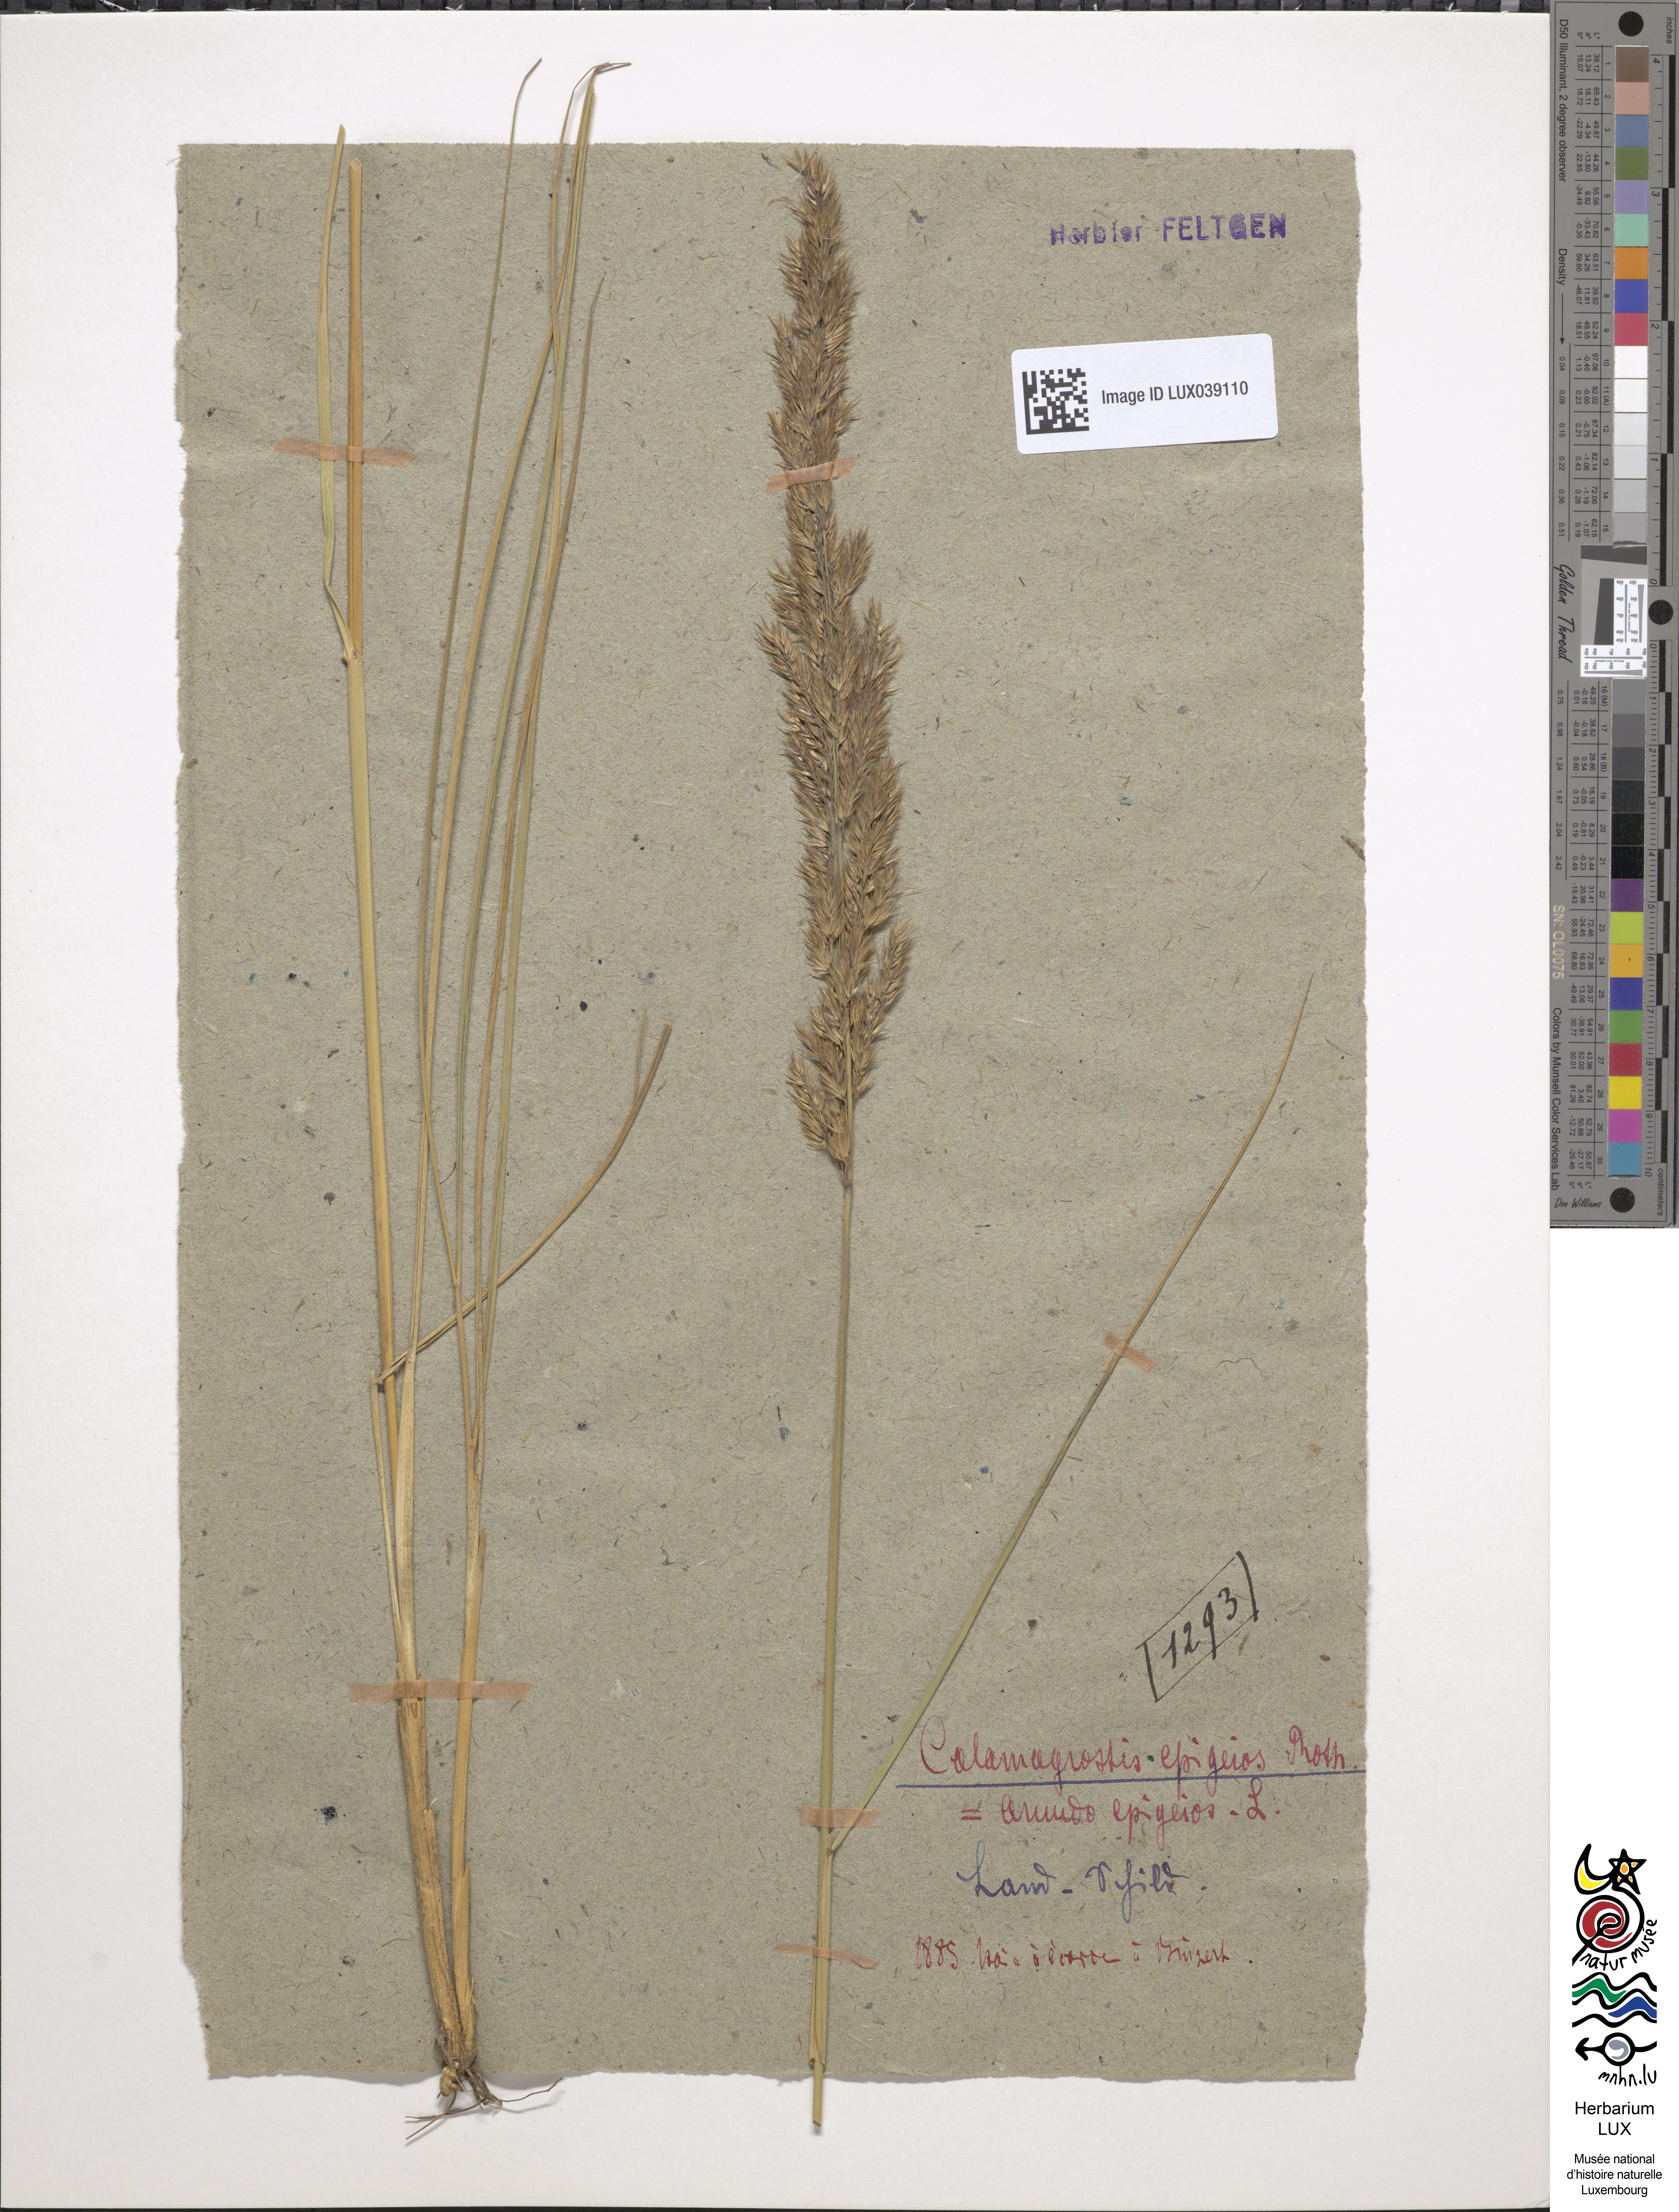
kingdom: Plantae
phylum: Tracheophyta
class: Liliopsida
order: Poales
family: Poaceae
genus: Calamagrostis
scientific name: Calamagrostis epigejos
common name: Wood small-reed
